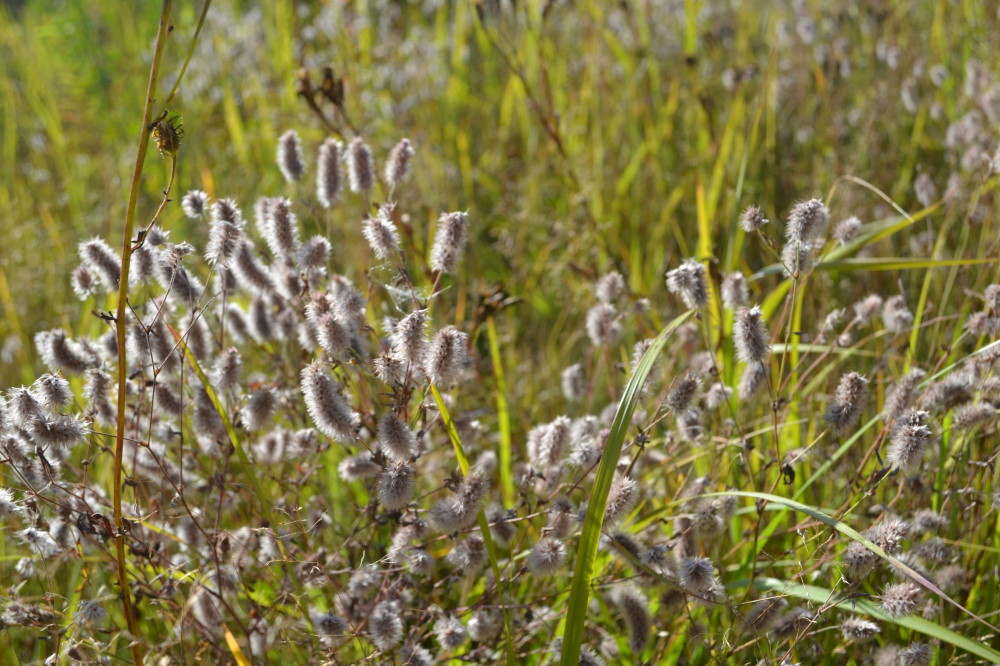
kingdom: Plantae
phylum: Tracheophyta
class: Magnoliopsida
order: Fabales
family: Fabaceae
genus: Trifolium
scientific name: Trifolium arvense
